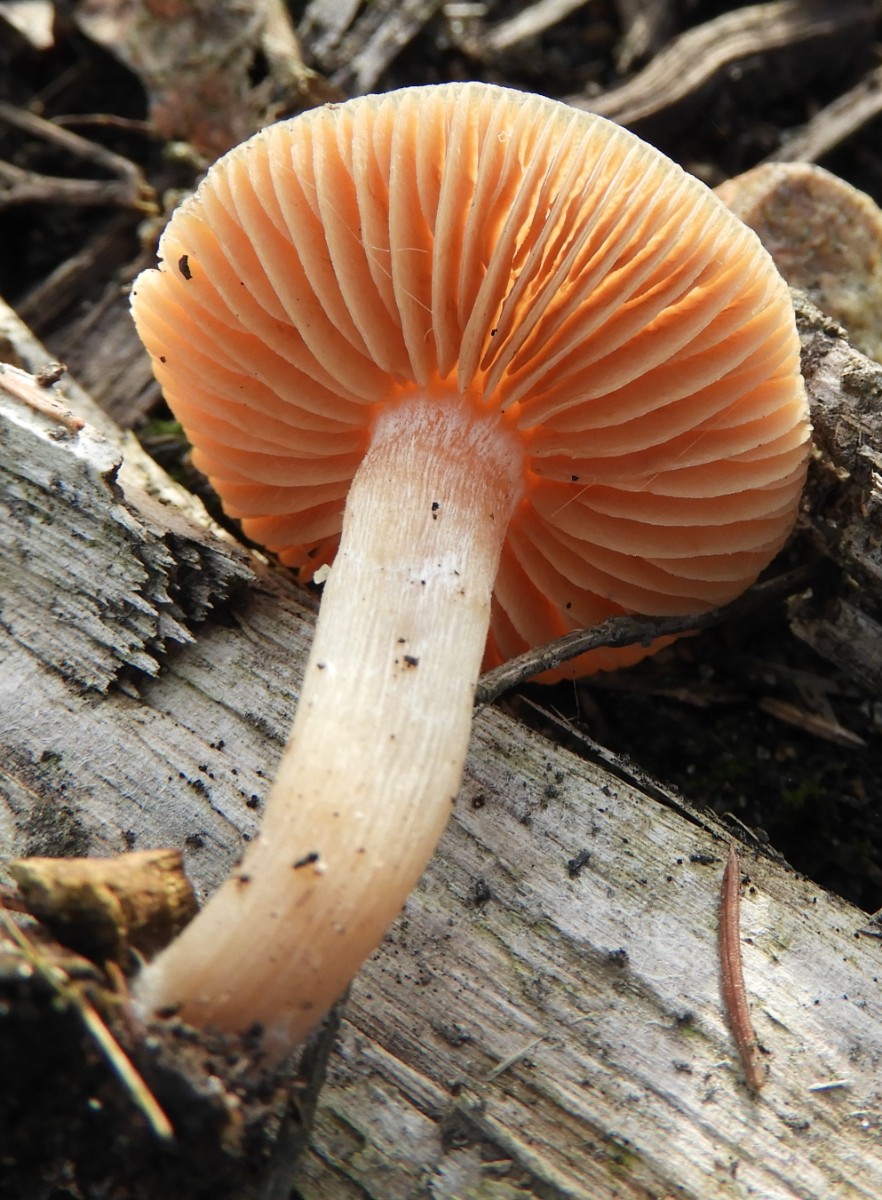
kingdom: Fungi
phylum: Basidiomycota
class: Agaricomycetes
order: Agaricales
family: Tubariaceae
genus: Tubaria
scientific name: Tubaria furfuracea
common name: kliddet fnughat
